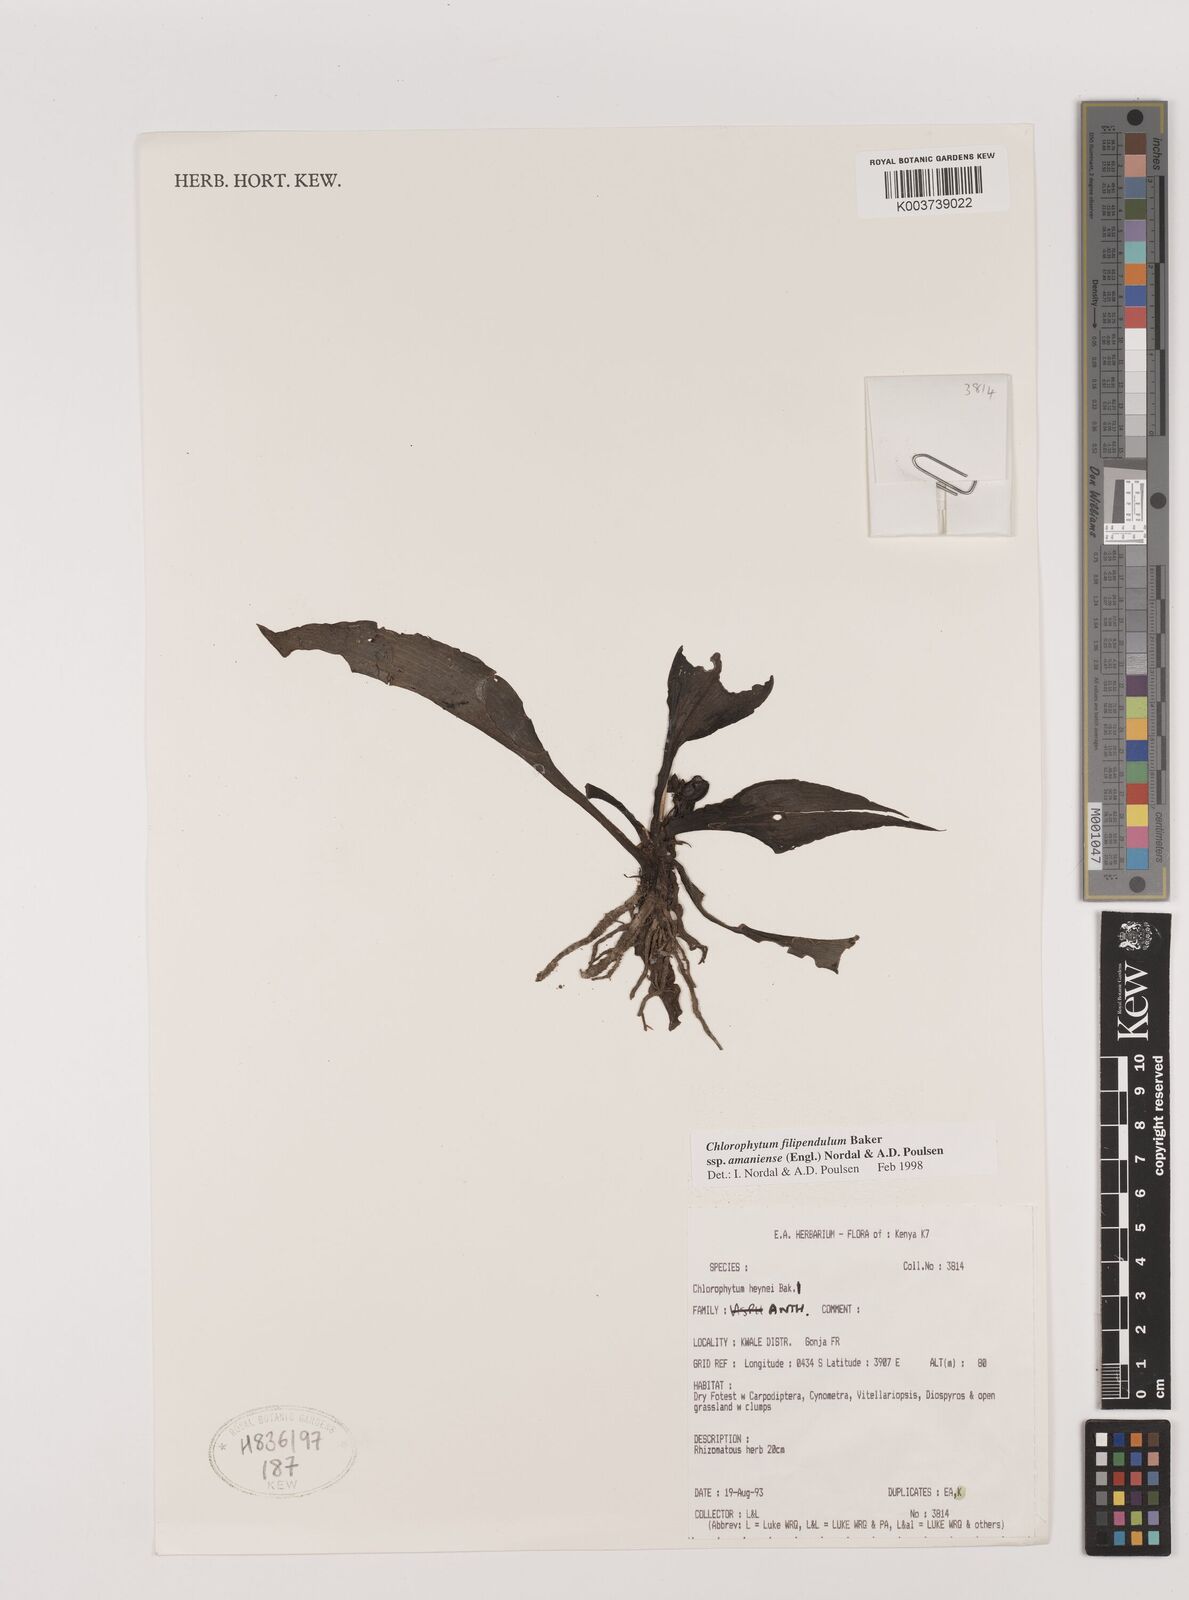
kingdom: Plantae
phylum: Tracheophyta
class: Liliopsida
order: Asparagales
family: Asparagaceae
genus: Chlorophytum
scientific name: Chlorophytum filipendulum
